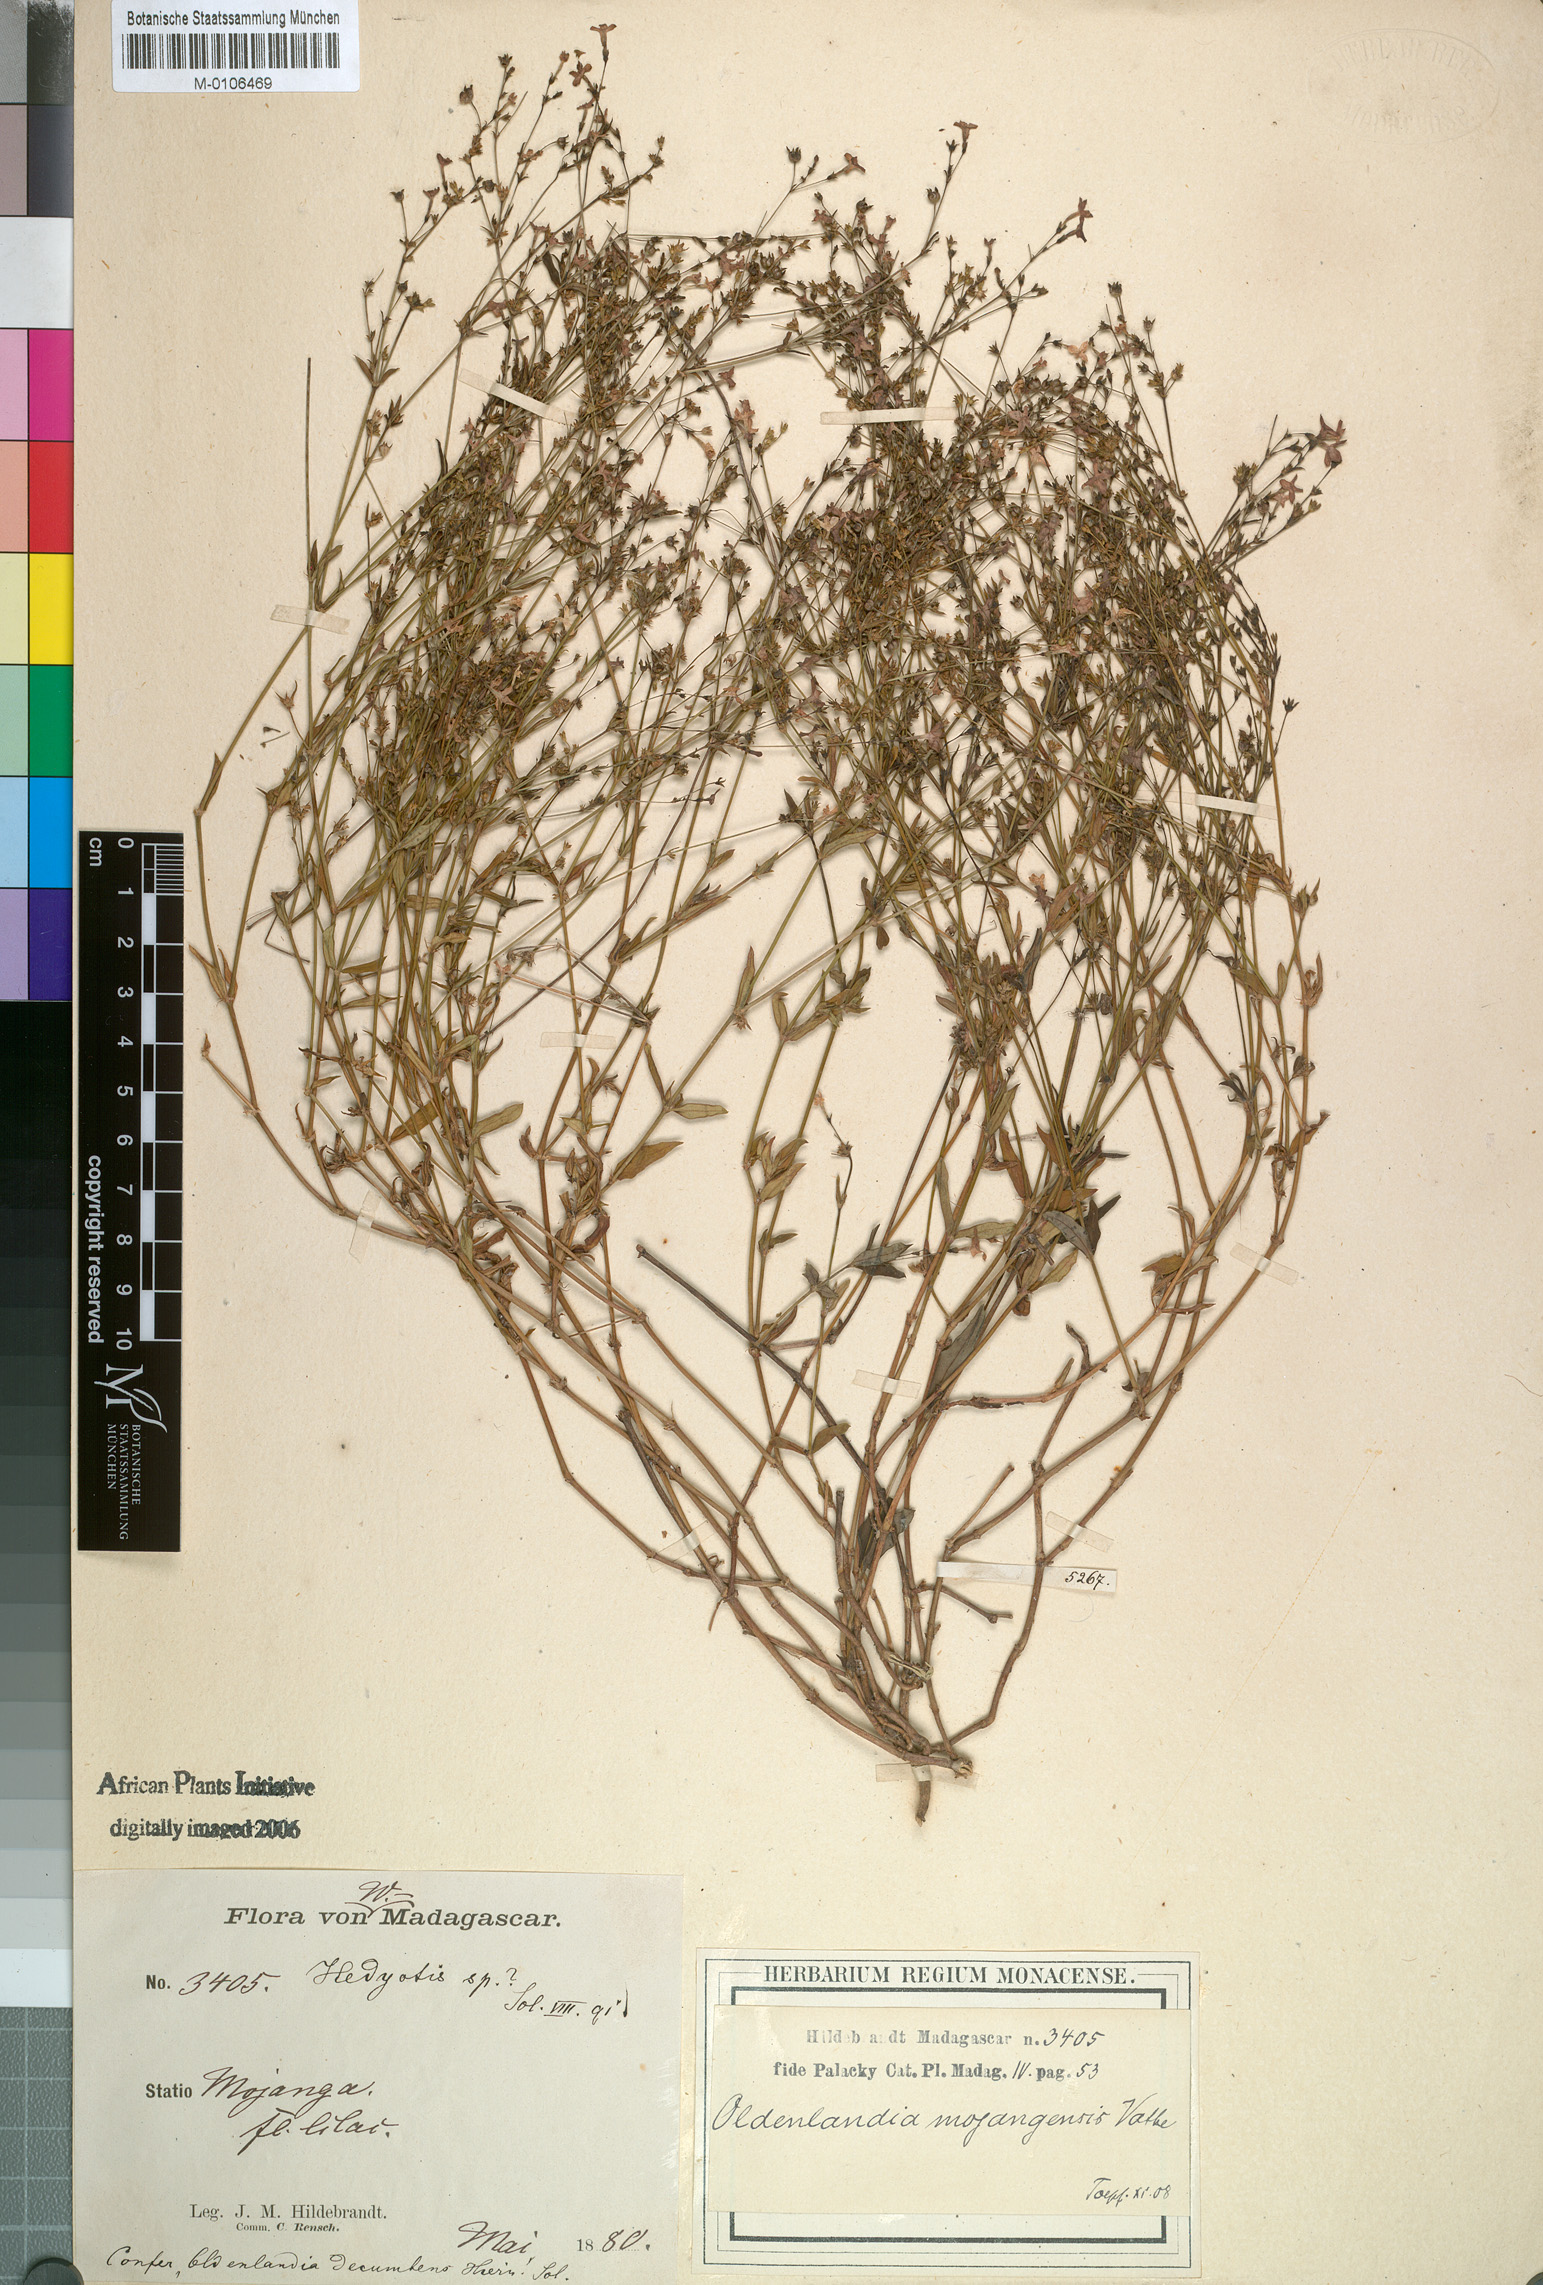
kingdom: Plantae
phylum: Tracheophyta
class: Magnoliopsida
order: Gentianales
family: Rubiaceae
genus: Oldenlandia
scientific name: Oldenlandia
